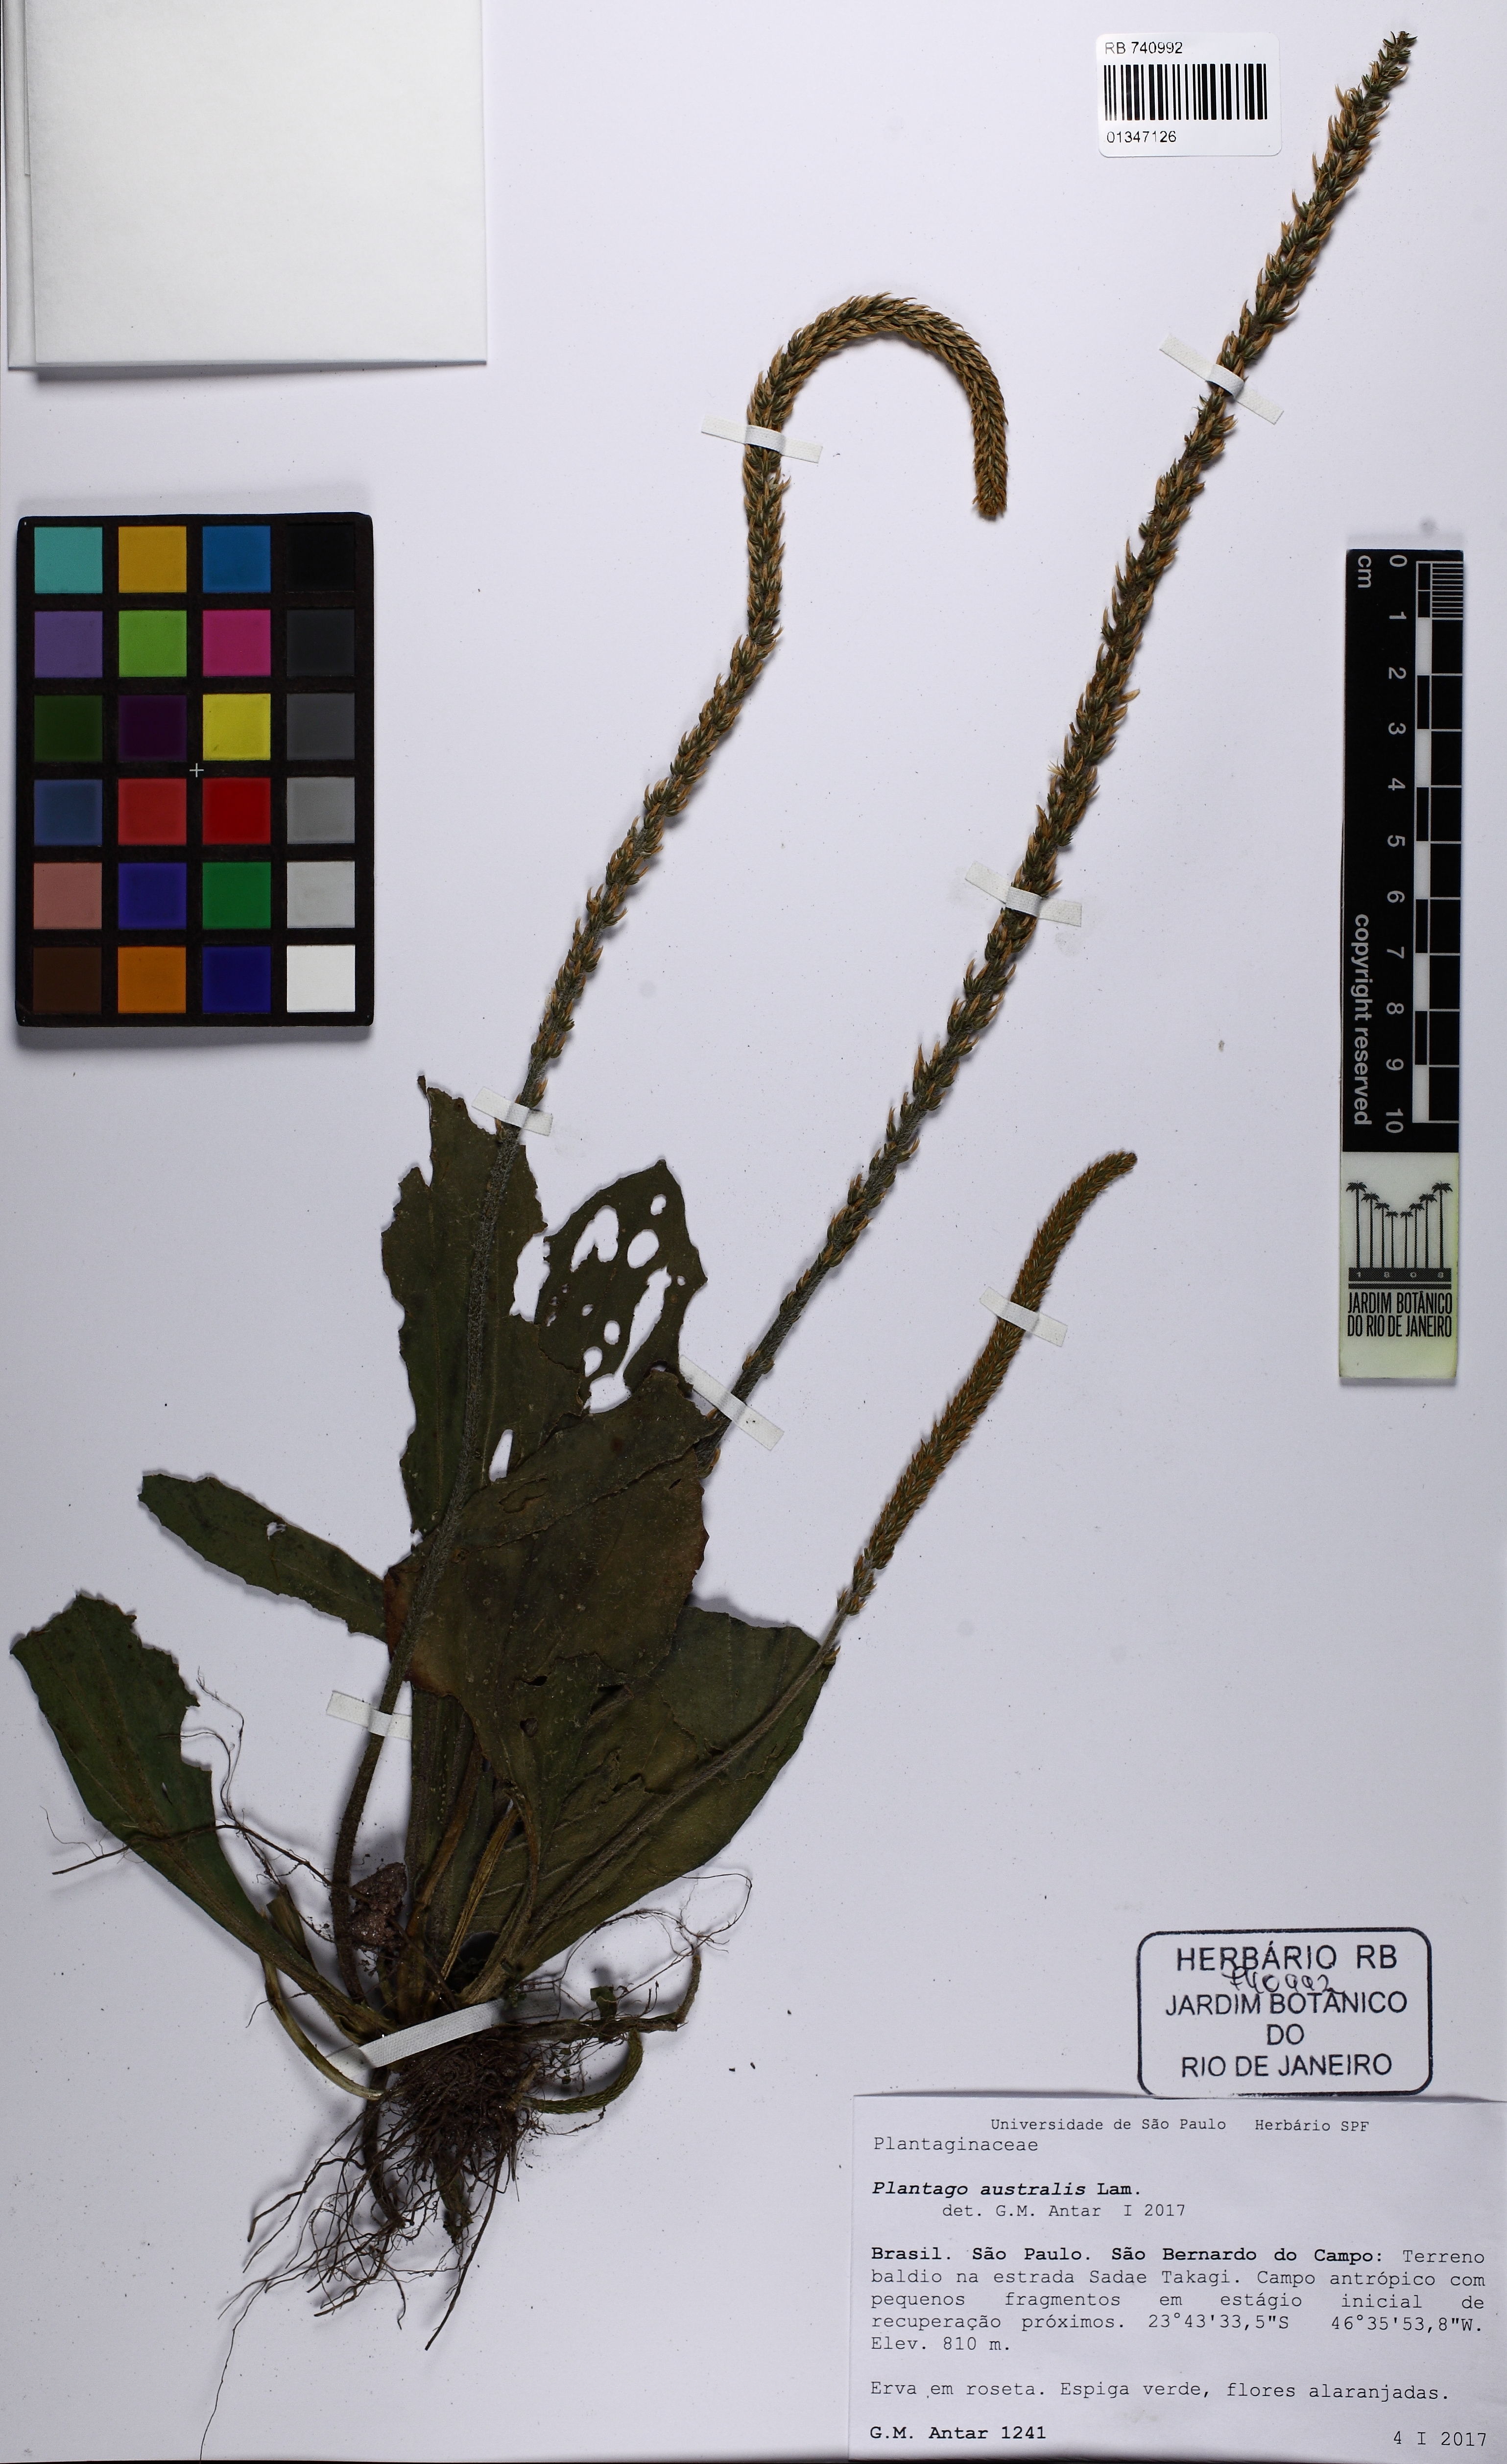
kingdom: Plantae
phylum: Tracheophyta
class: Magnoliopsida
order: Lamiales
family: Plantaginaceae
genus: Plantago
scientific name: Plantago australis
